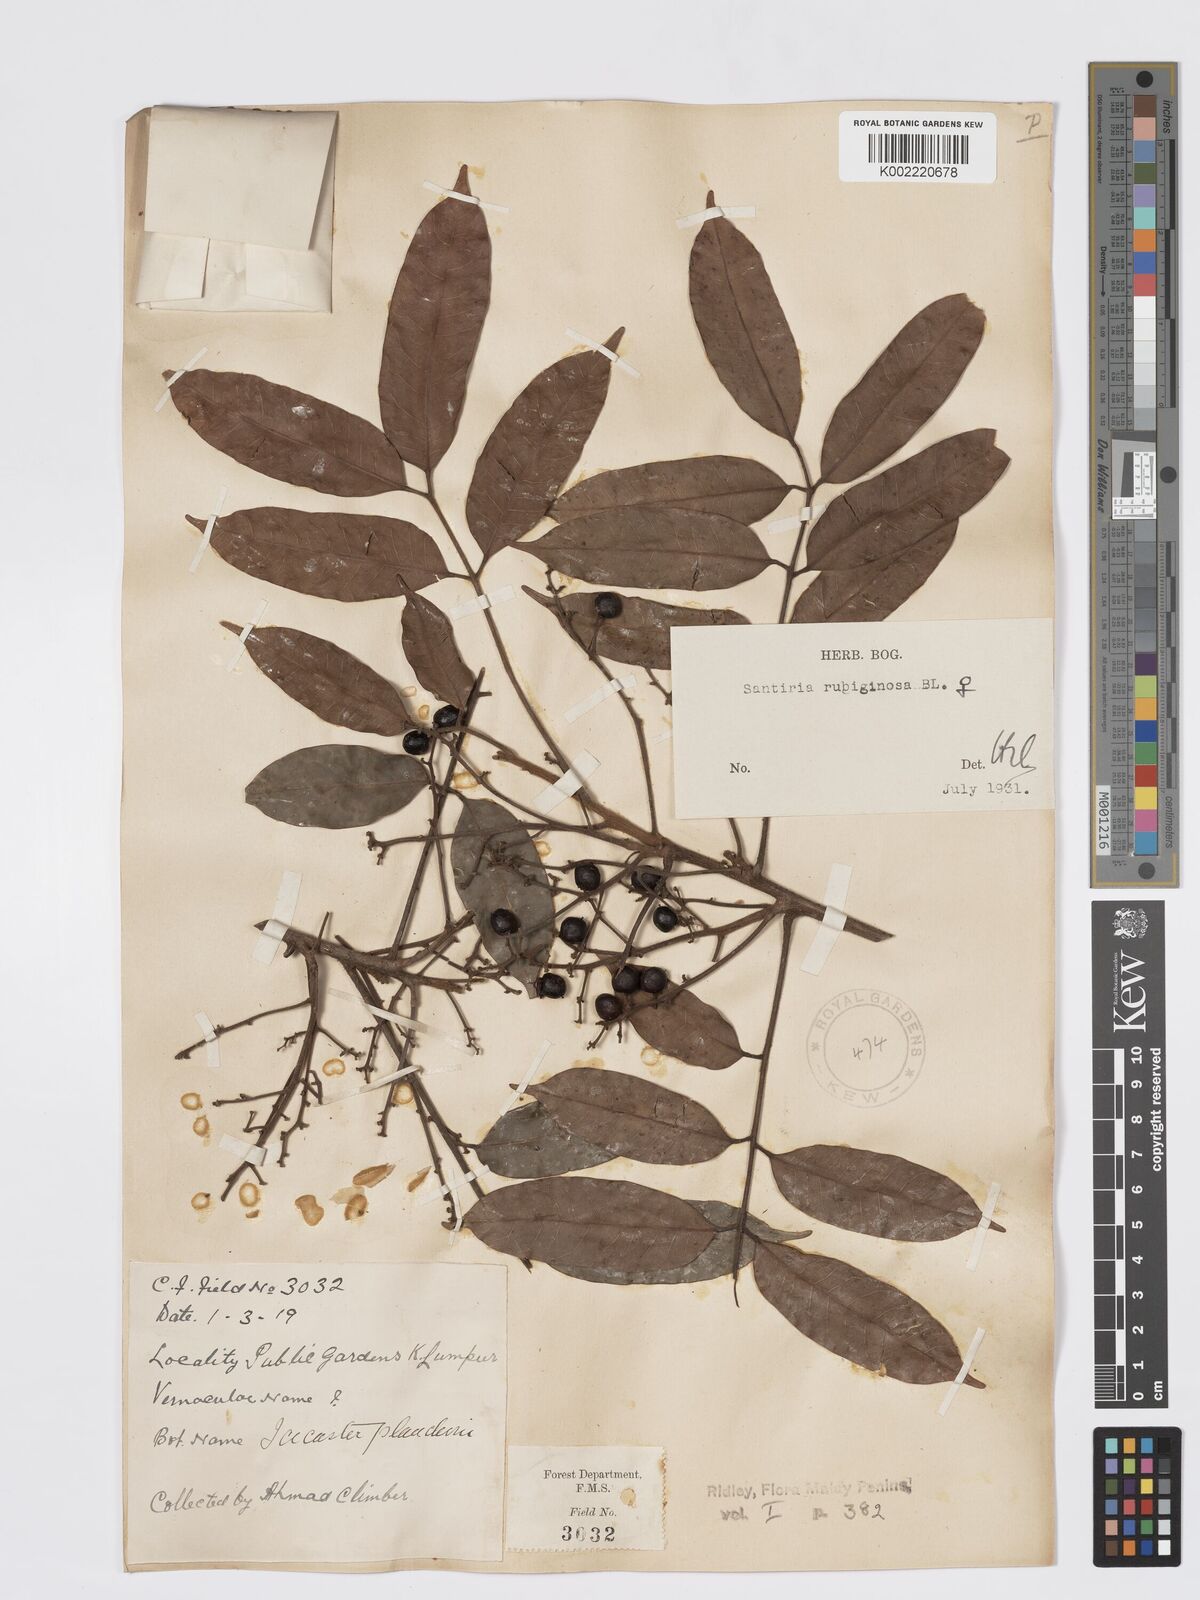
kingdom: Plantae
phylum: Tracheophyta
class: Magnoliopsida
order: Sapindales
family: Burseraceae
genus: Santiria
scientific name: Santiria rubiginosa
